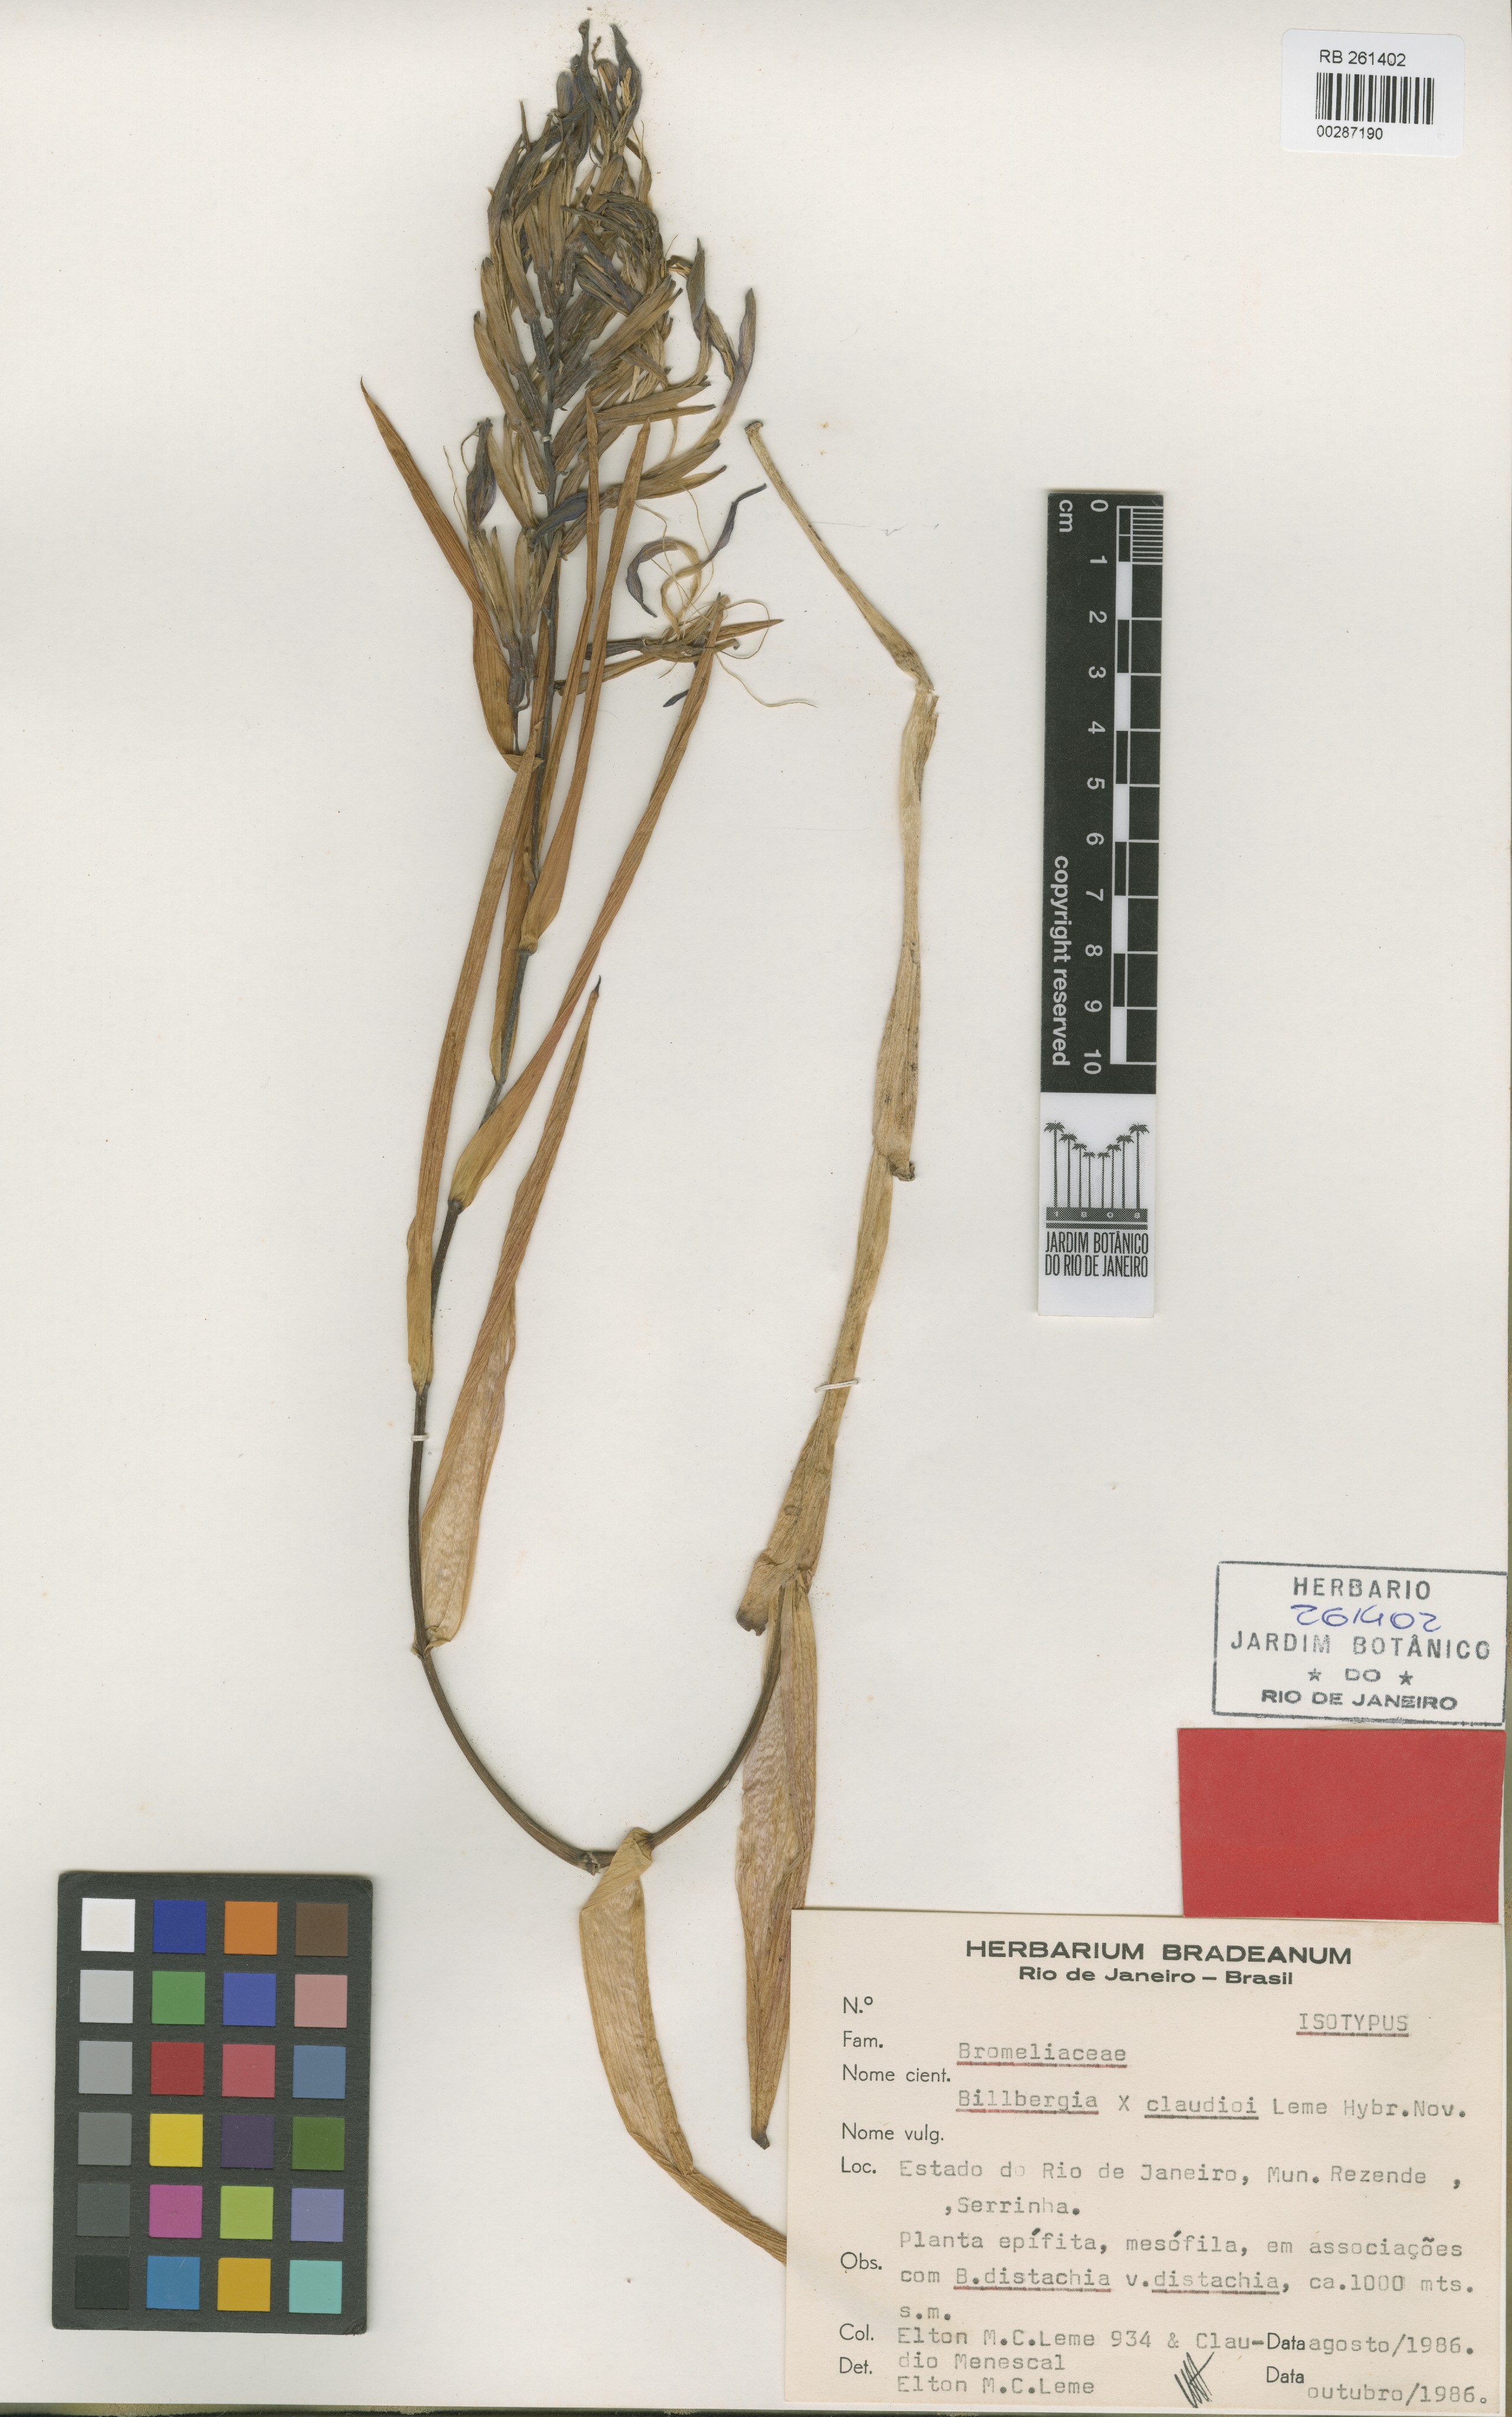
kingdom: Plantae
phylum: Tracheophyta
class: Liliopsida
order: Poales
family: Bromeliaceae
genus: Billbergia
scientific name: Billbergia claudioi
